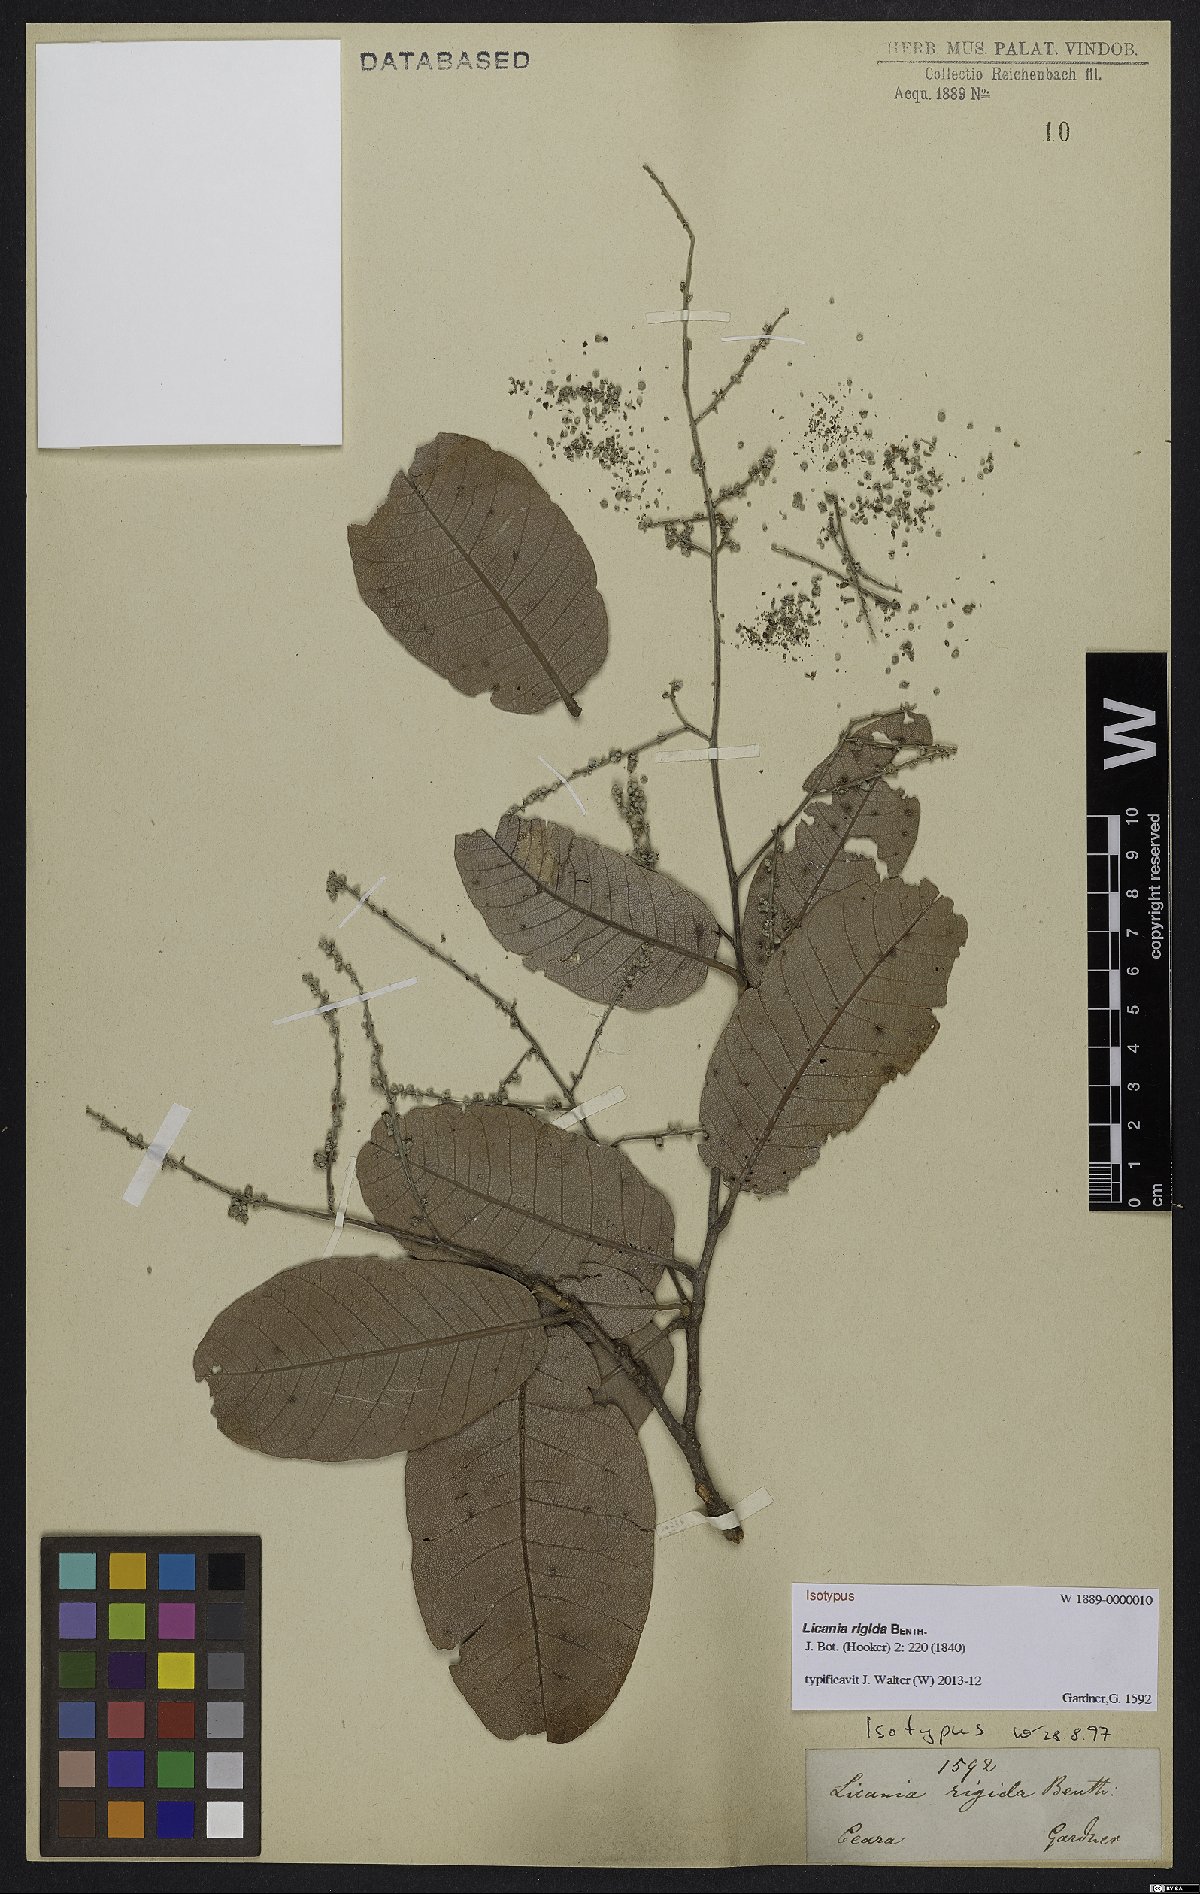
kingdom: Plantae
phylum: Tracheophyta
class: Magnoliopsida
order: Malpighiales
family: Chrysobalanaceae
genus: Microdesmia
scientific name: Microdesmia rigida
